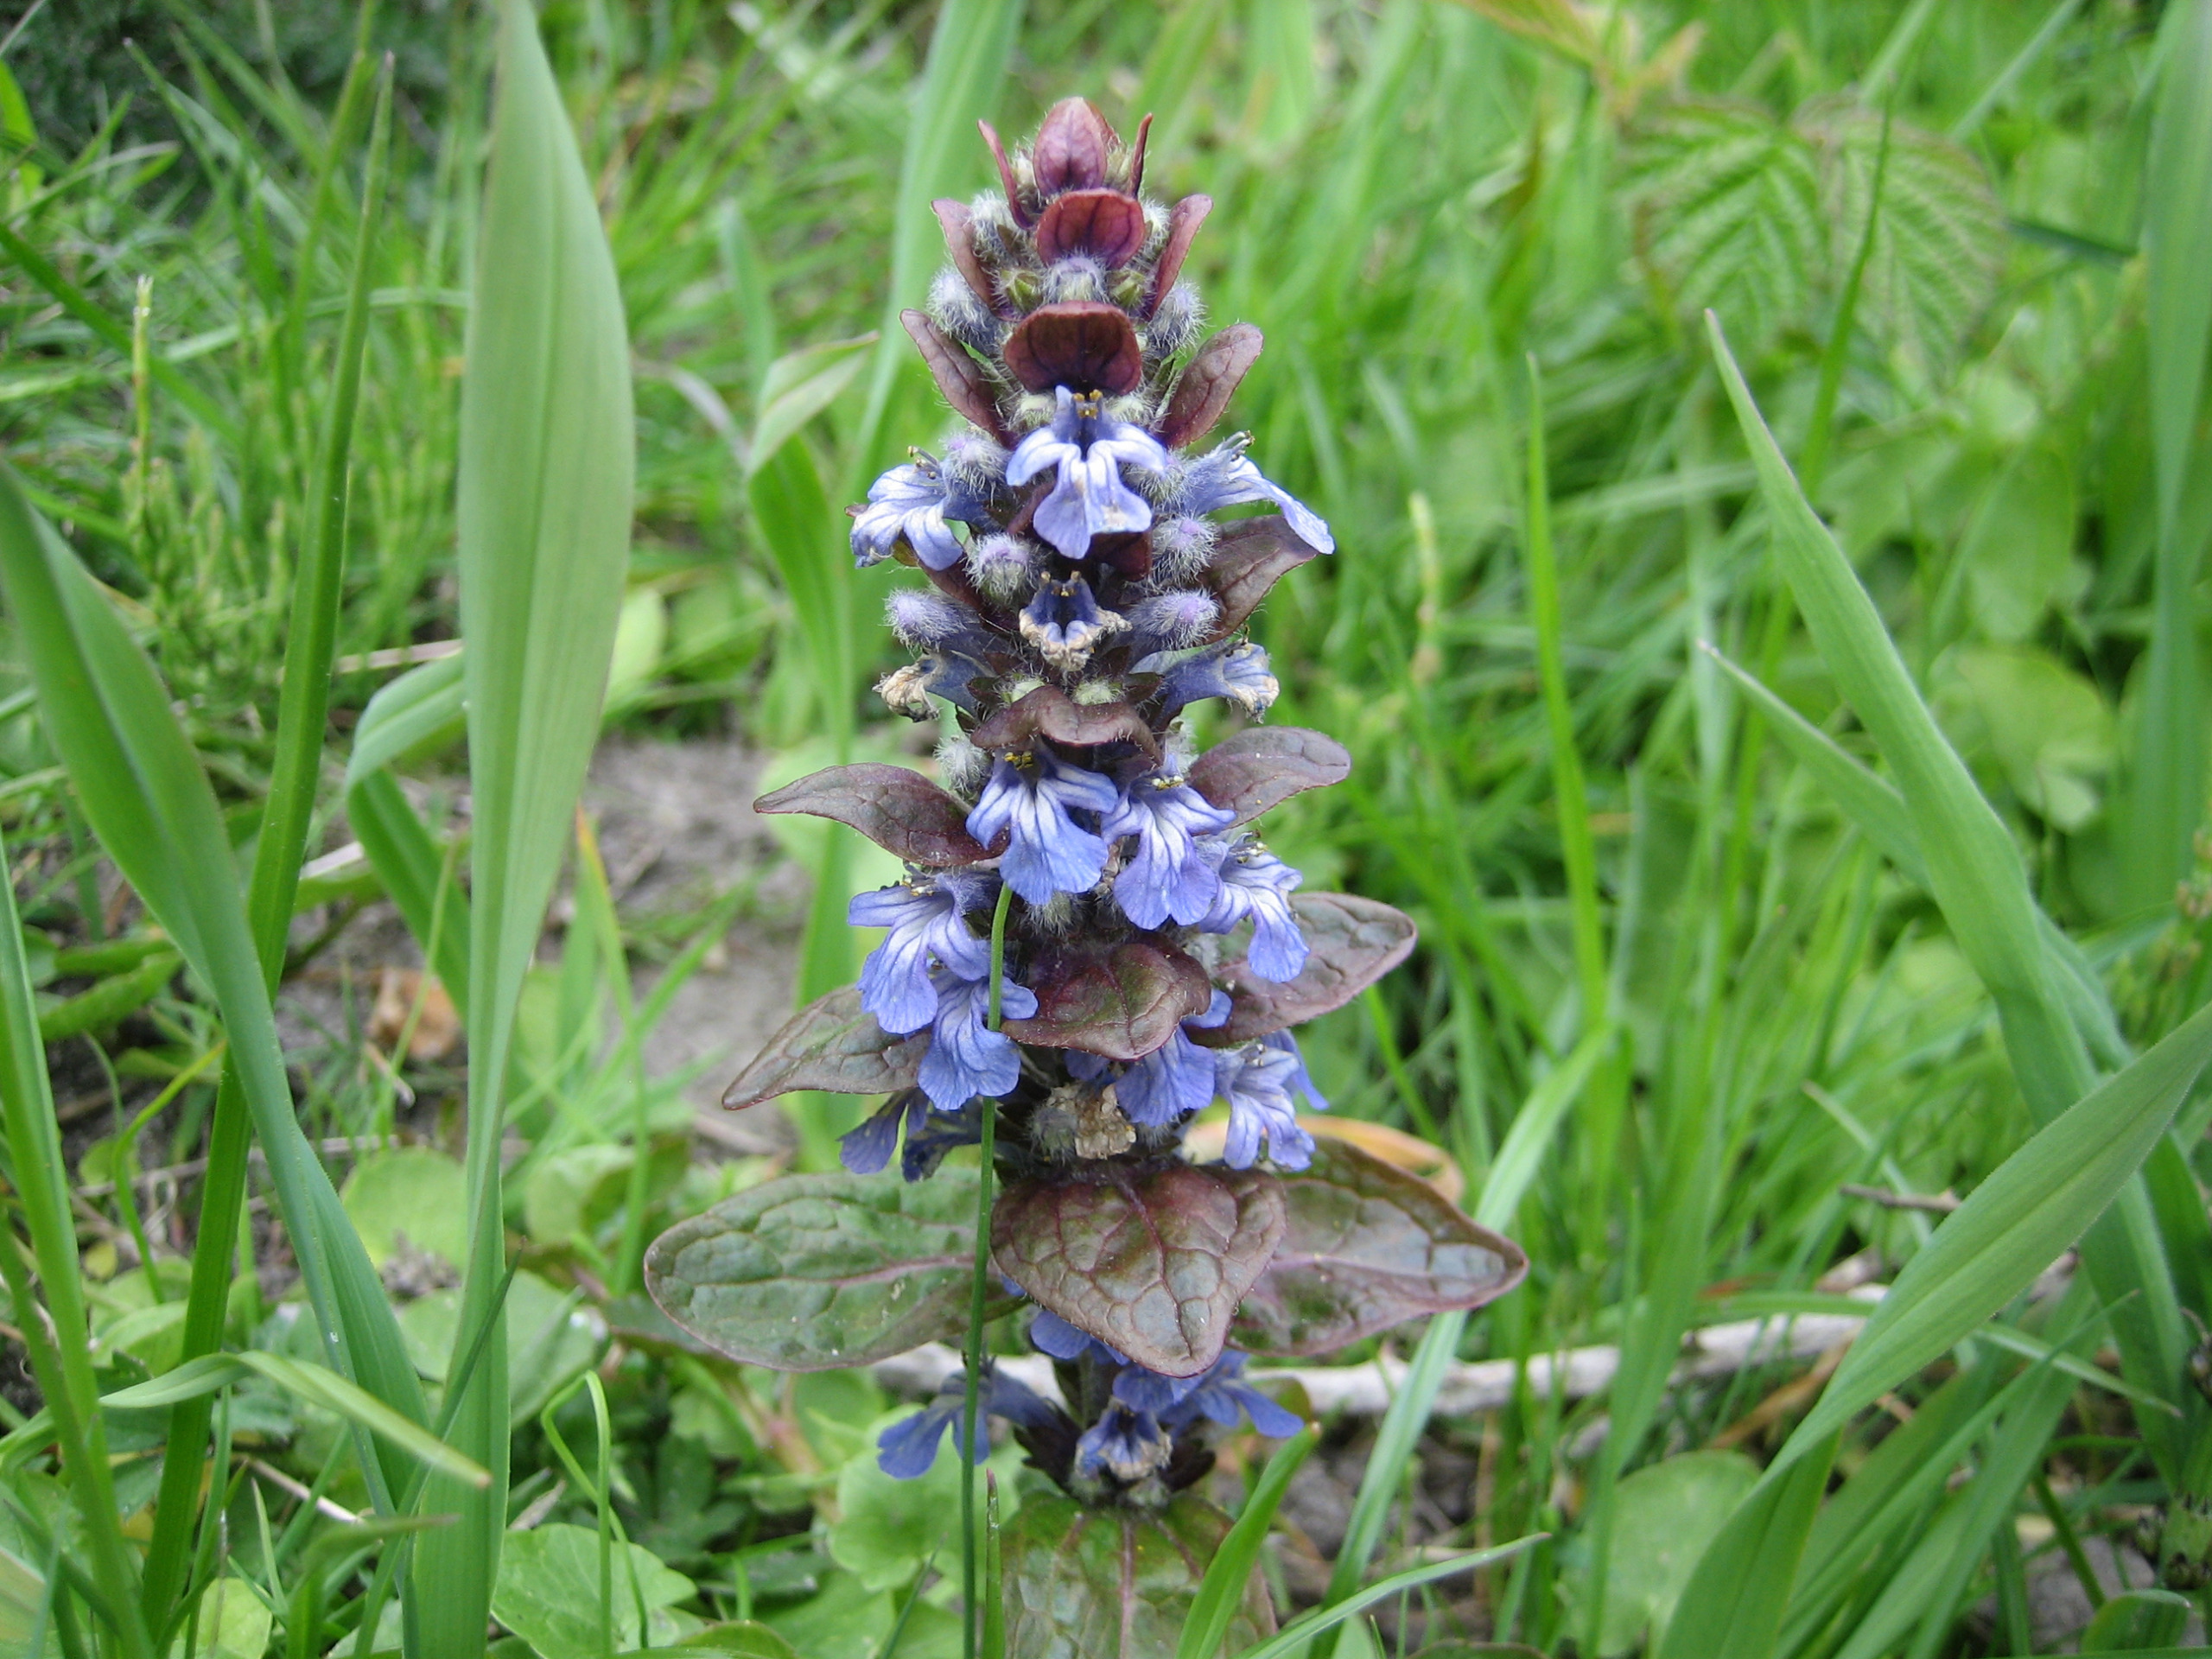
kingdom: Plantae
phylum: Tracheophyta
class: Magnoliopsida
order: Lamiales
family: Lamiaceae
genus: Ajuga
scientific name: Ajuga reptans
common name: Krybende læbeløs
